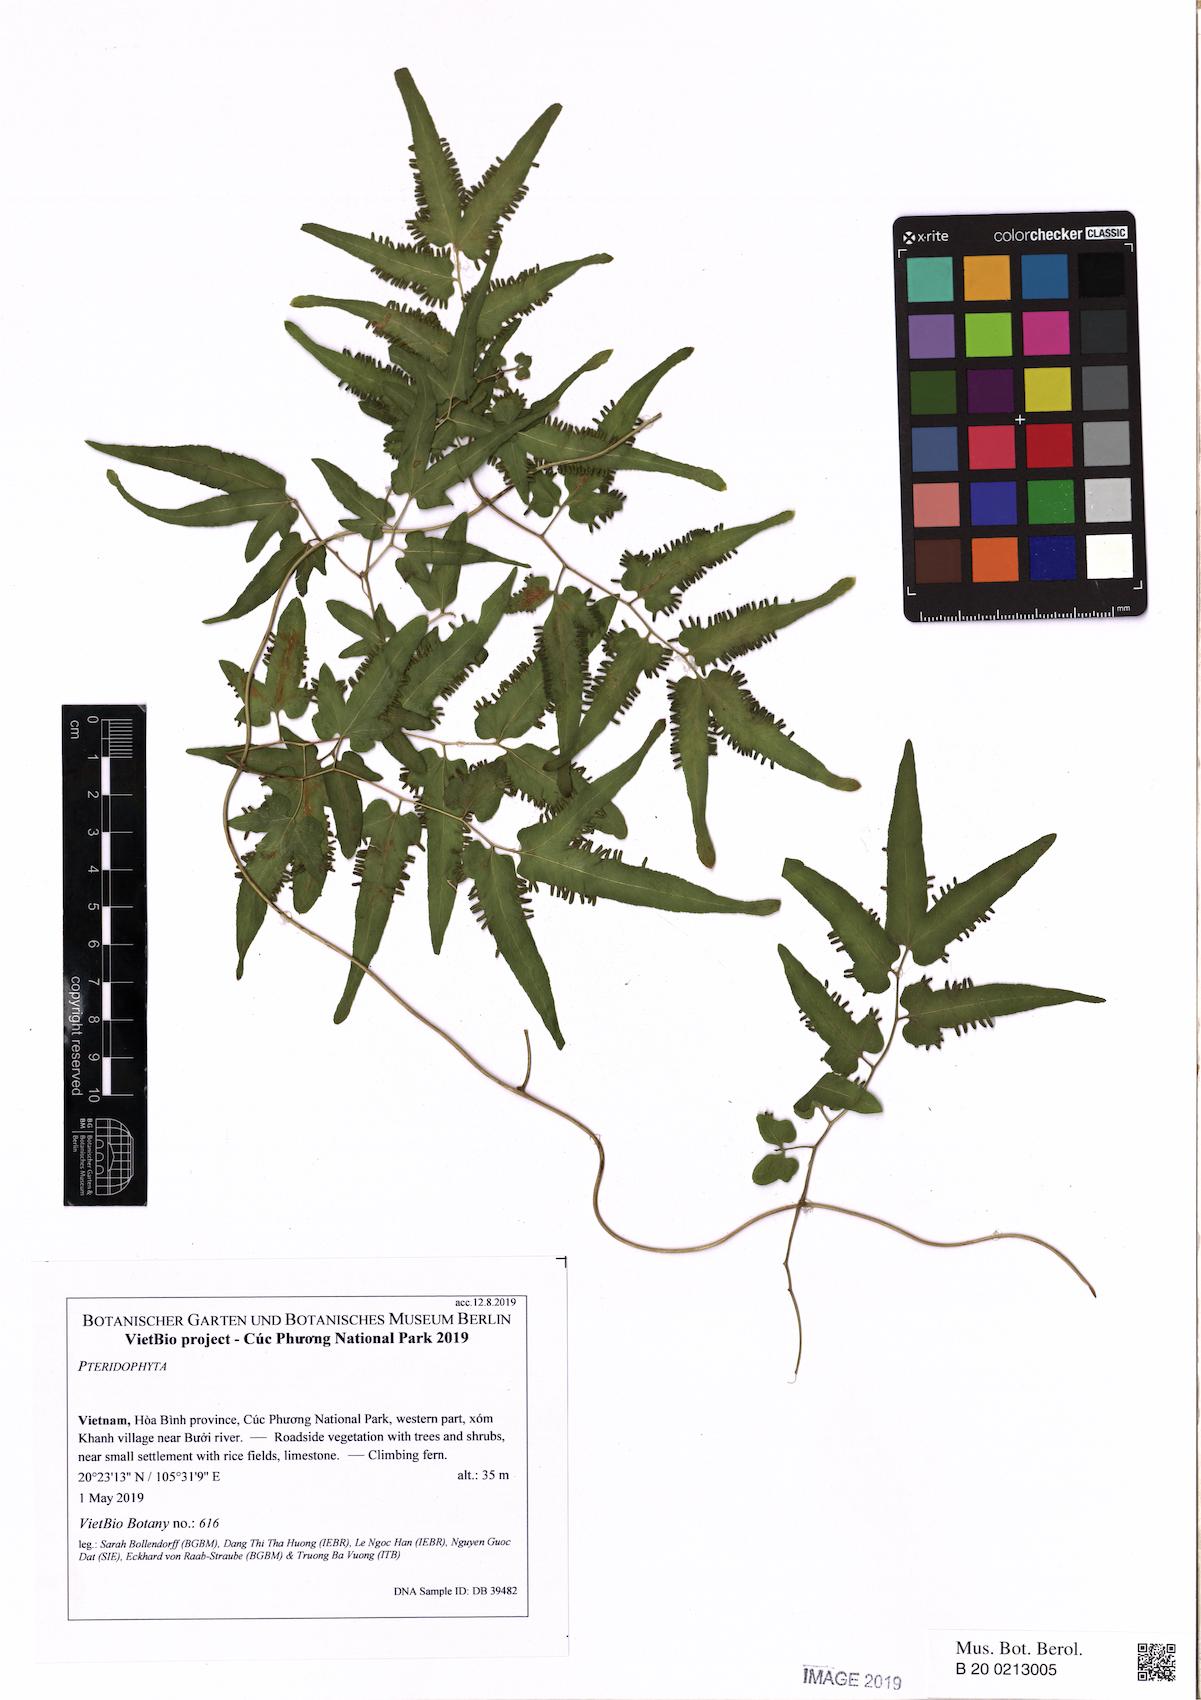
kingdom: Plantae
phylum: Tracheophyta
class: Polypodiopsida
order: Schizaeales
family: Lygodiaceae
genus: Lygodium
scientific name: Lygodium flexuosum
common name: Maidenhair creeper
